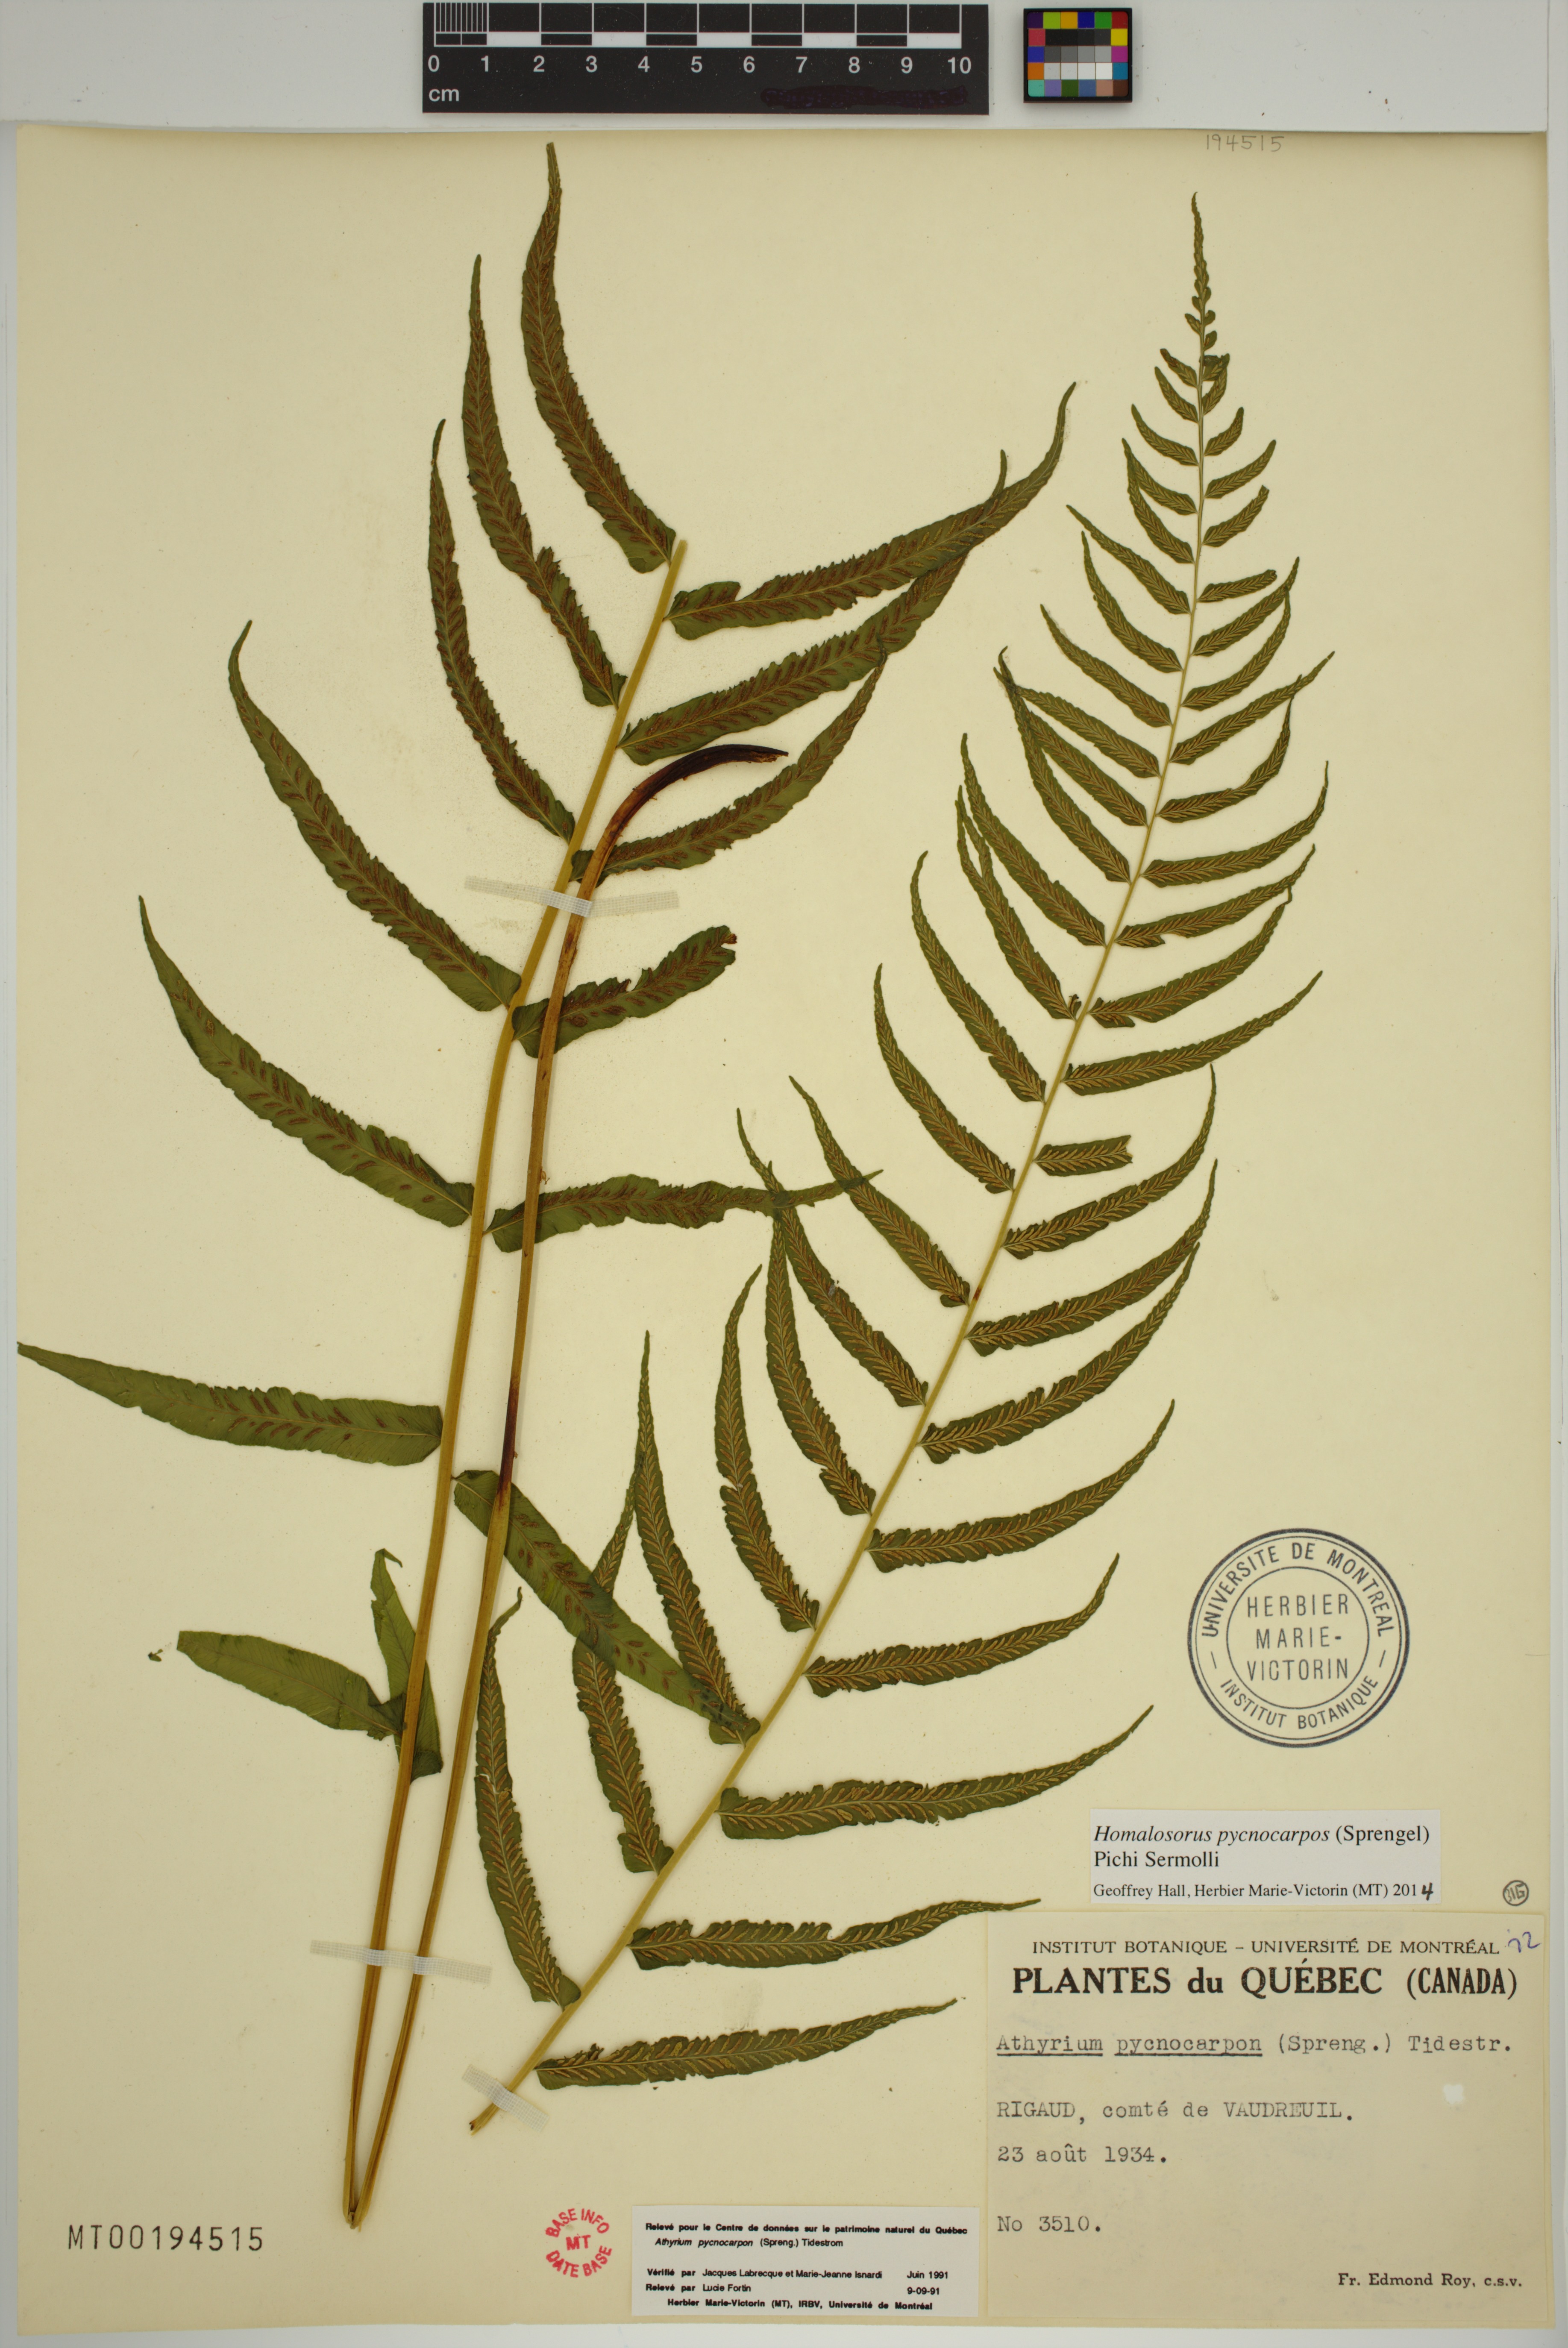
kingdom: Plantae
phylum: Tracheophyta
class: Polypodiopsida
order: Polypodiales
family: Diplaziopsidaceae
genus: Homalosorus
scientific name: Homalosorus pycnocarpos
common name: Glade fern
